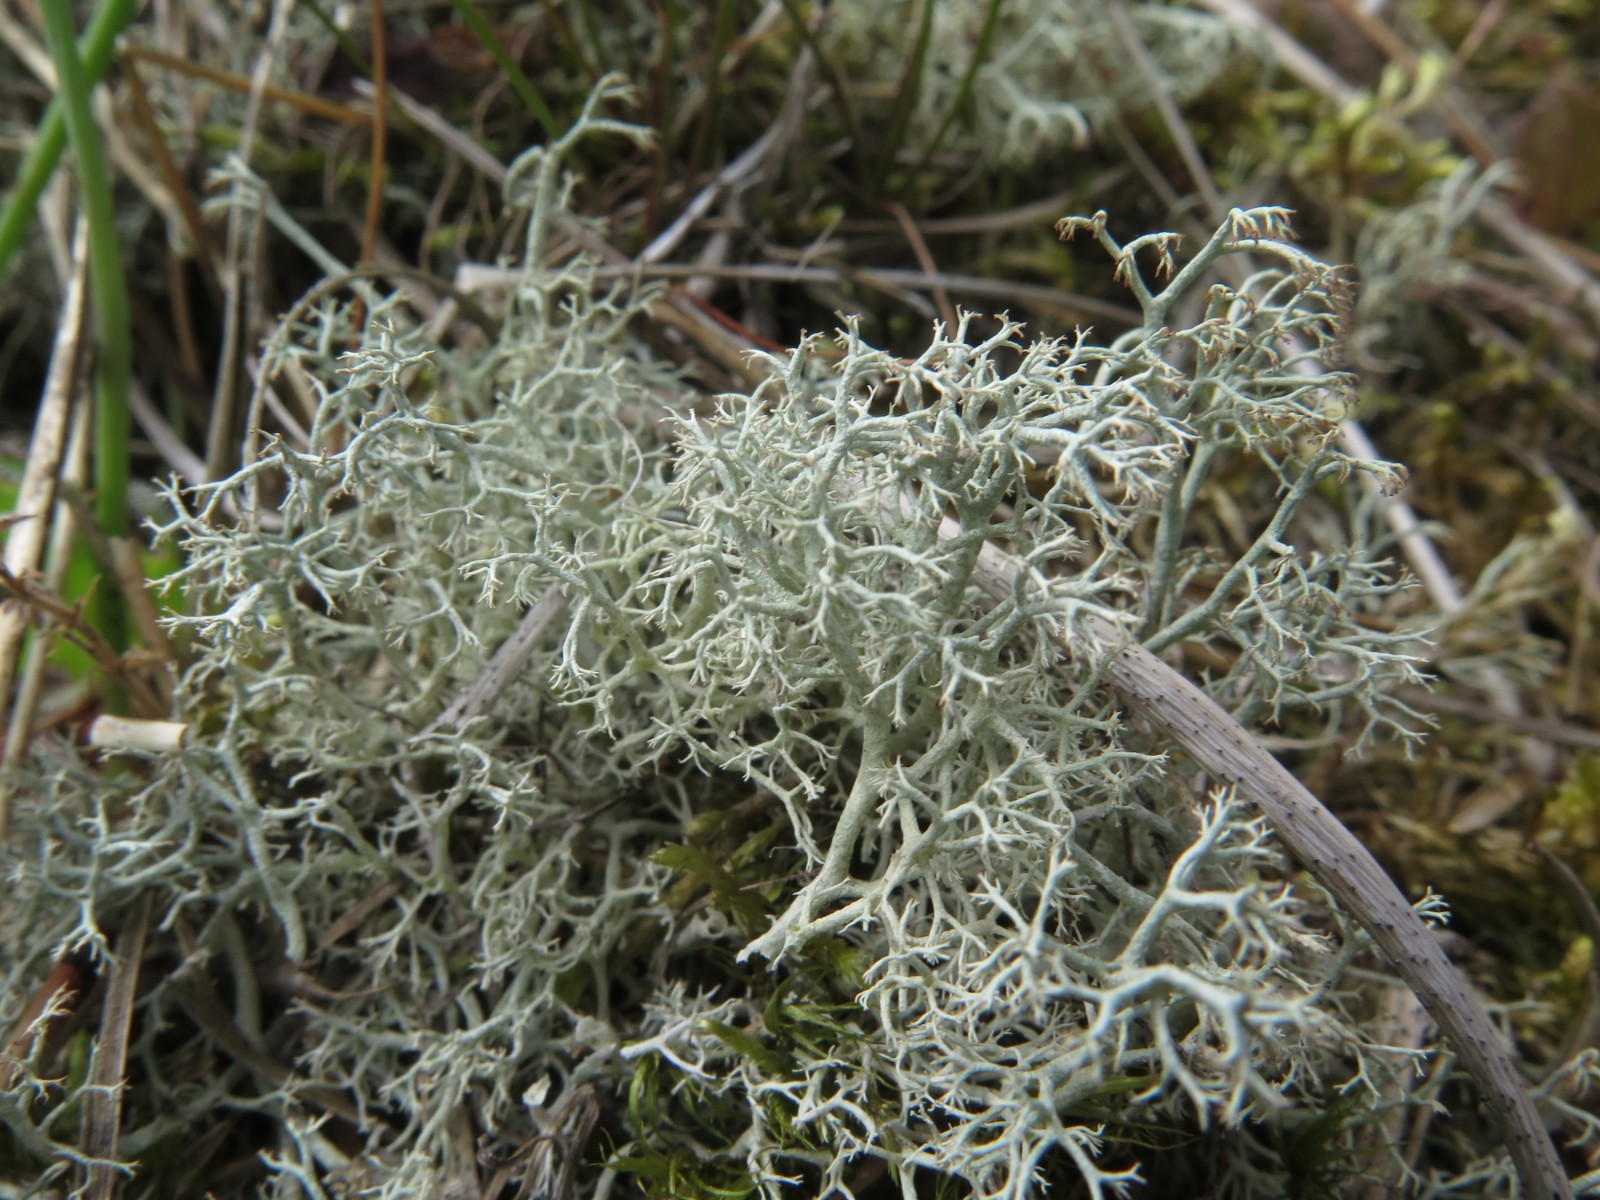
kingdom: Fungi
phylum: Ascomycota
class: Lecanoromycetes
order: Lecanorales
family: Cladoniaceae
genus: Cladonia
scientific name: Cladonia portentosa
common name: hede-rensdyrlav
